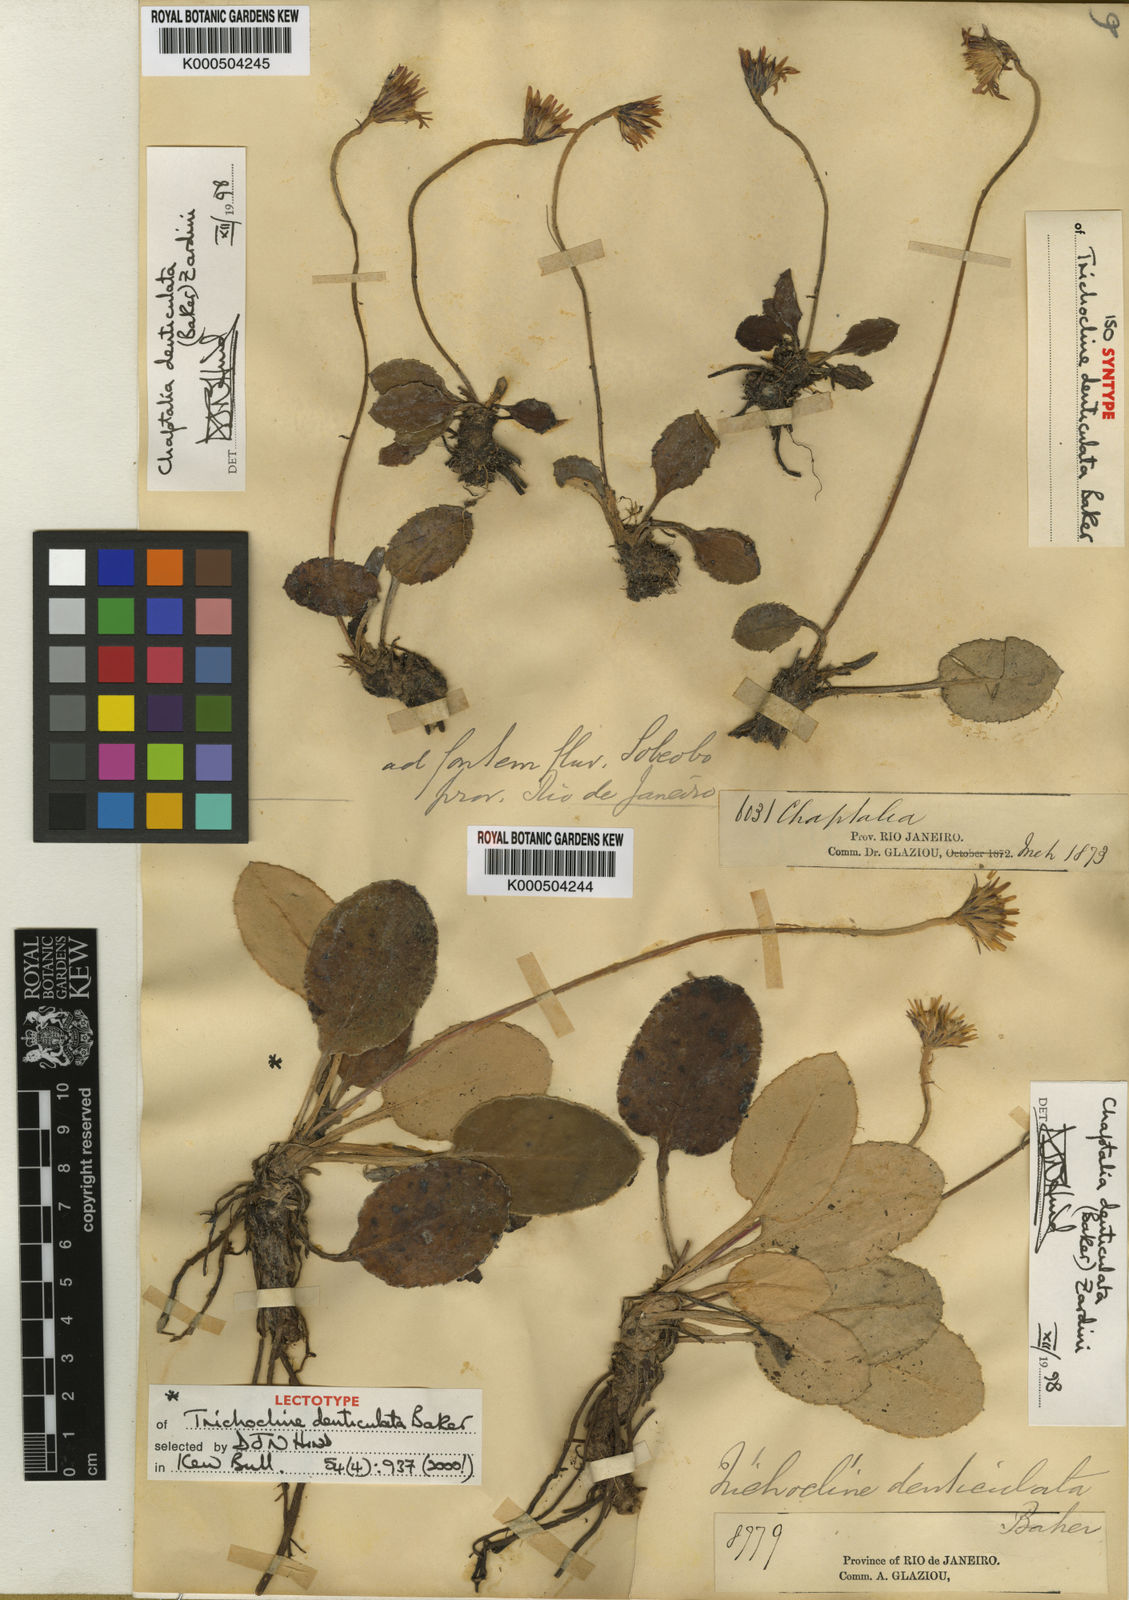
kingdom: Plantae
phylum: Tracheophyta
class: Magnoliopsida
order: Asterales
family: Asteraceae
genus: Chaptalia
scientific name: Chaptalia denticulata
